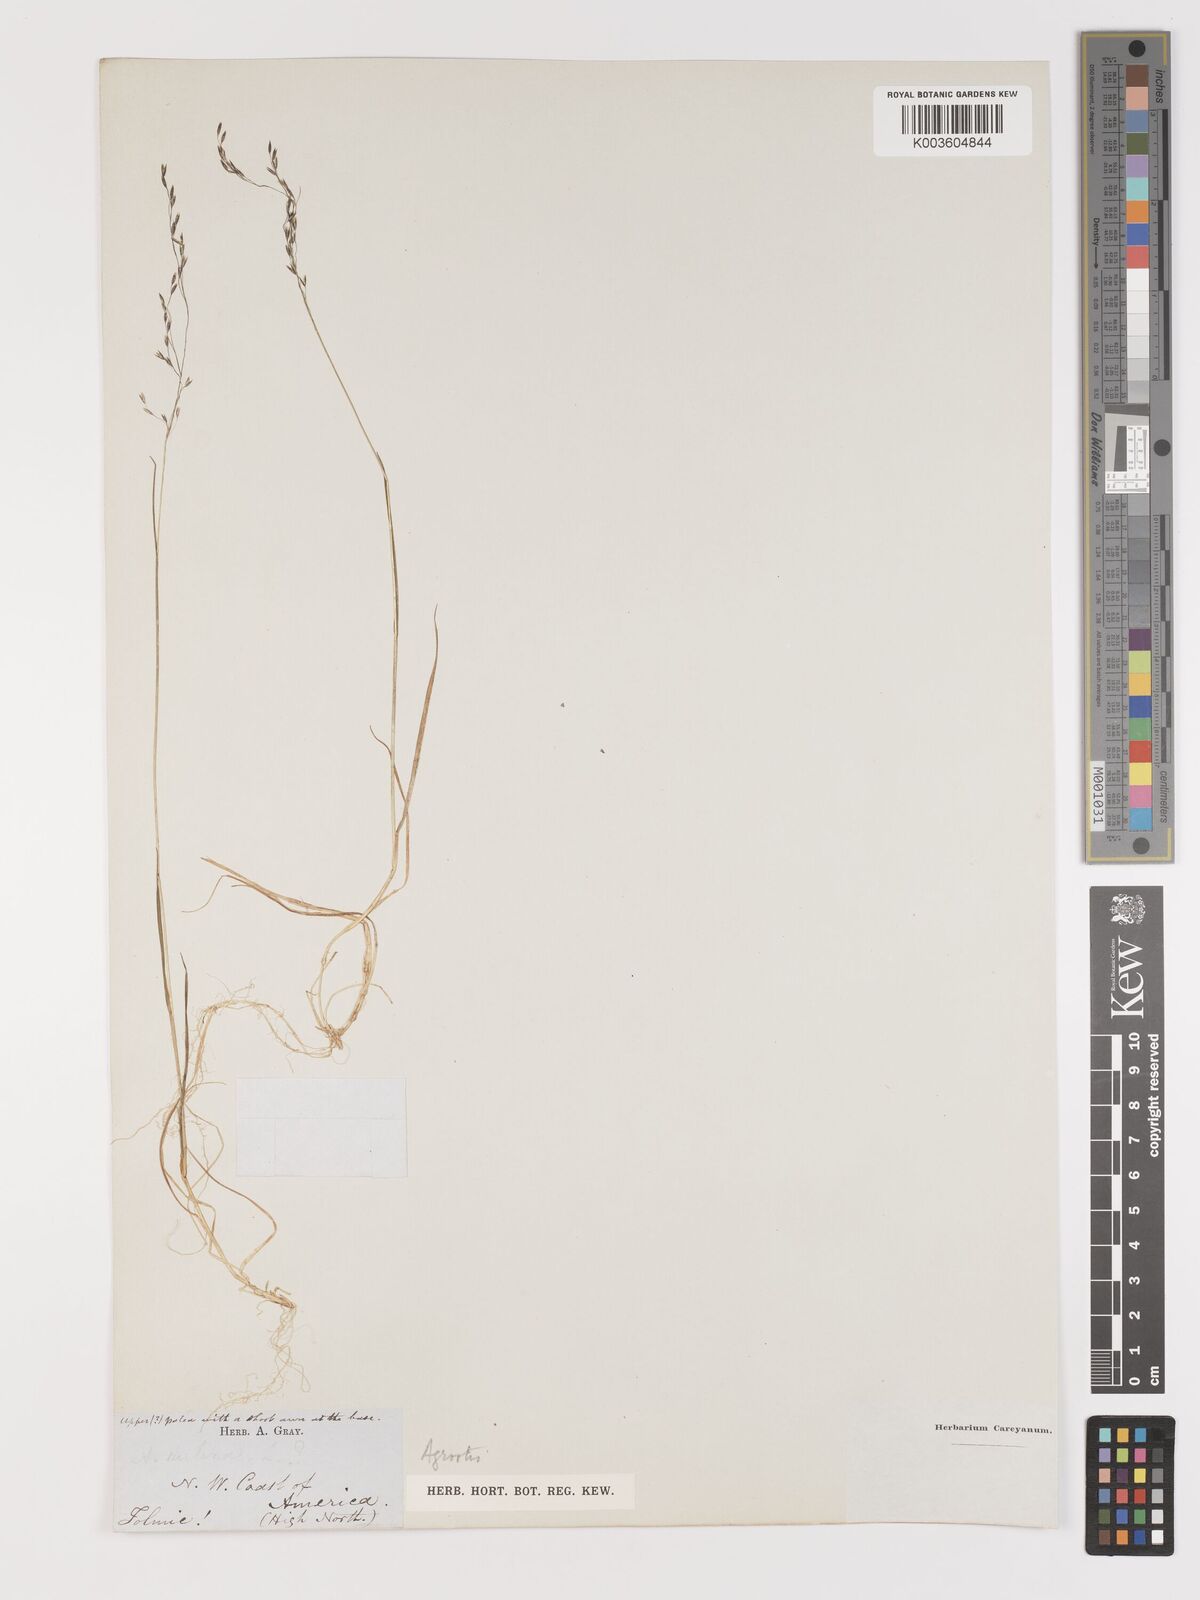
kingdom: Plantae
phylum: Tracheophyta
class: Liliopsida
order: Poales
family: Poaceae
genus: Agrostis
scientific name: Agrostis
